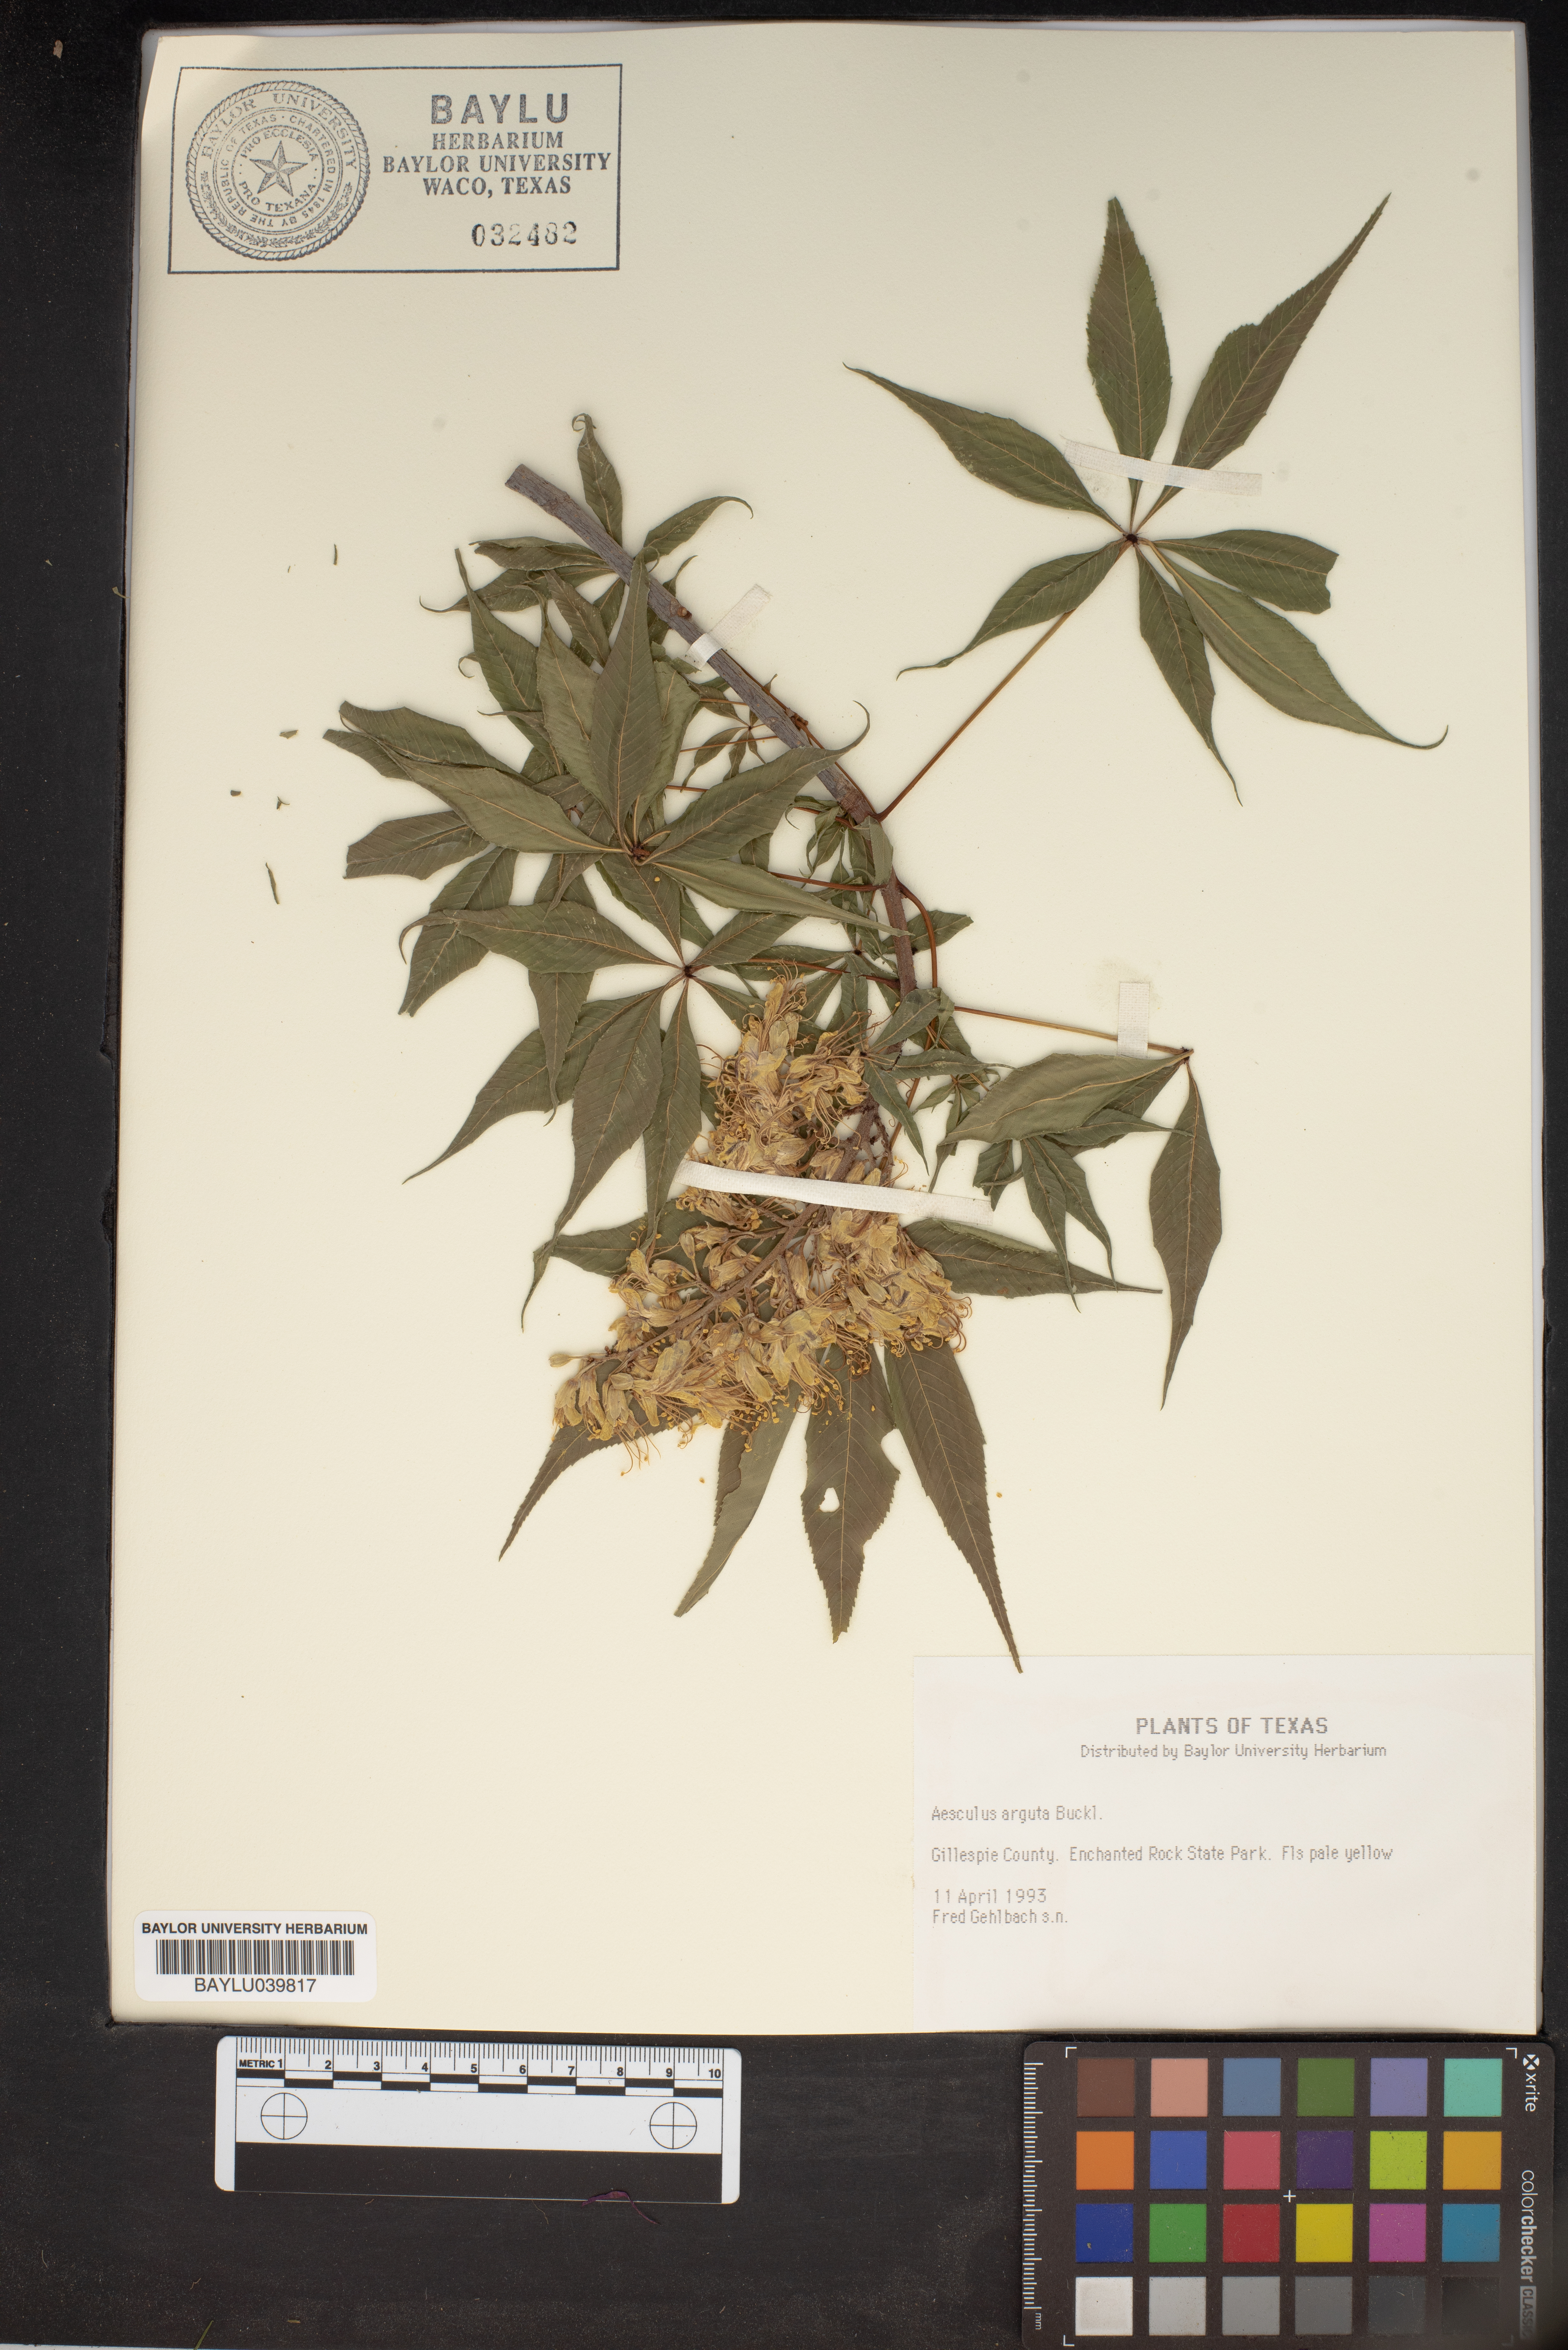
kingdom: Plantae
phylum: Tracheophyta
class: Magnoliopsida
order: Sapindales
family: Sapindaceae
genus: Aesculus
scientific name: Aesculus glabra
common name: Ohio buckeye
